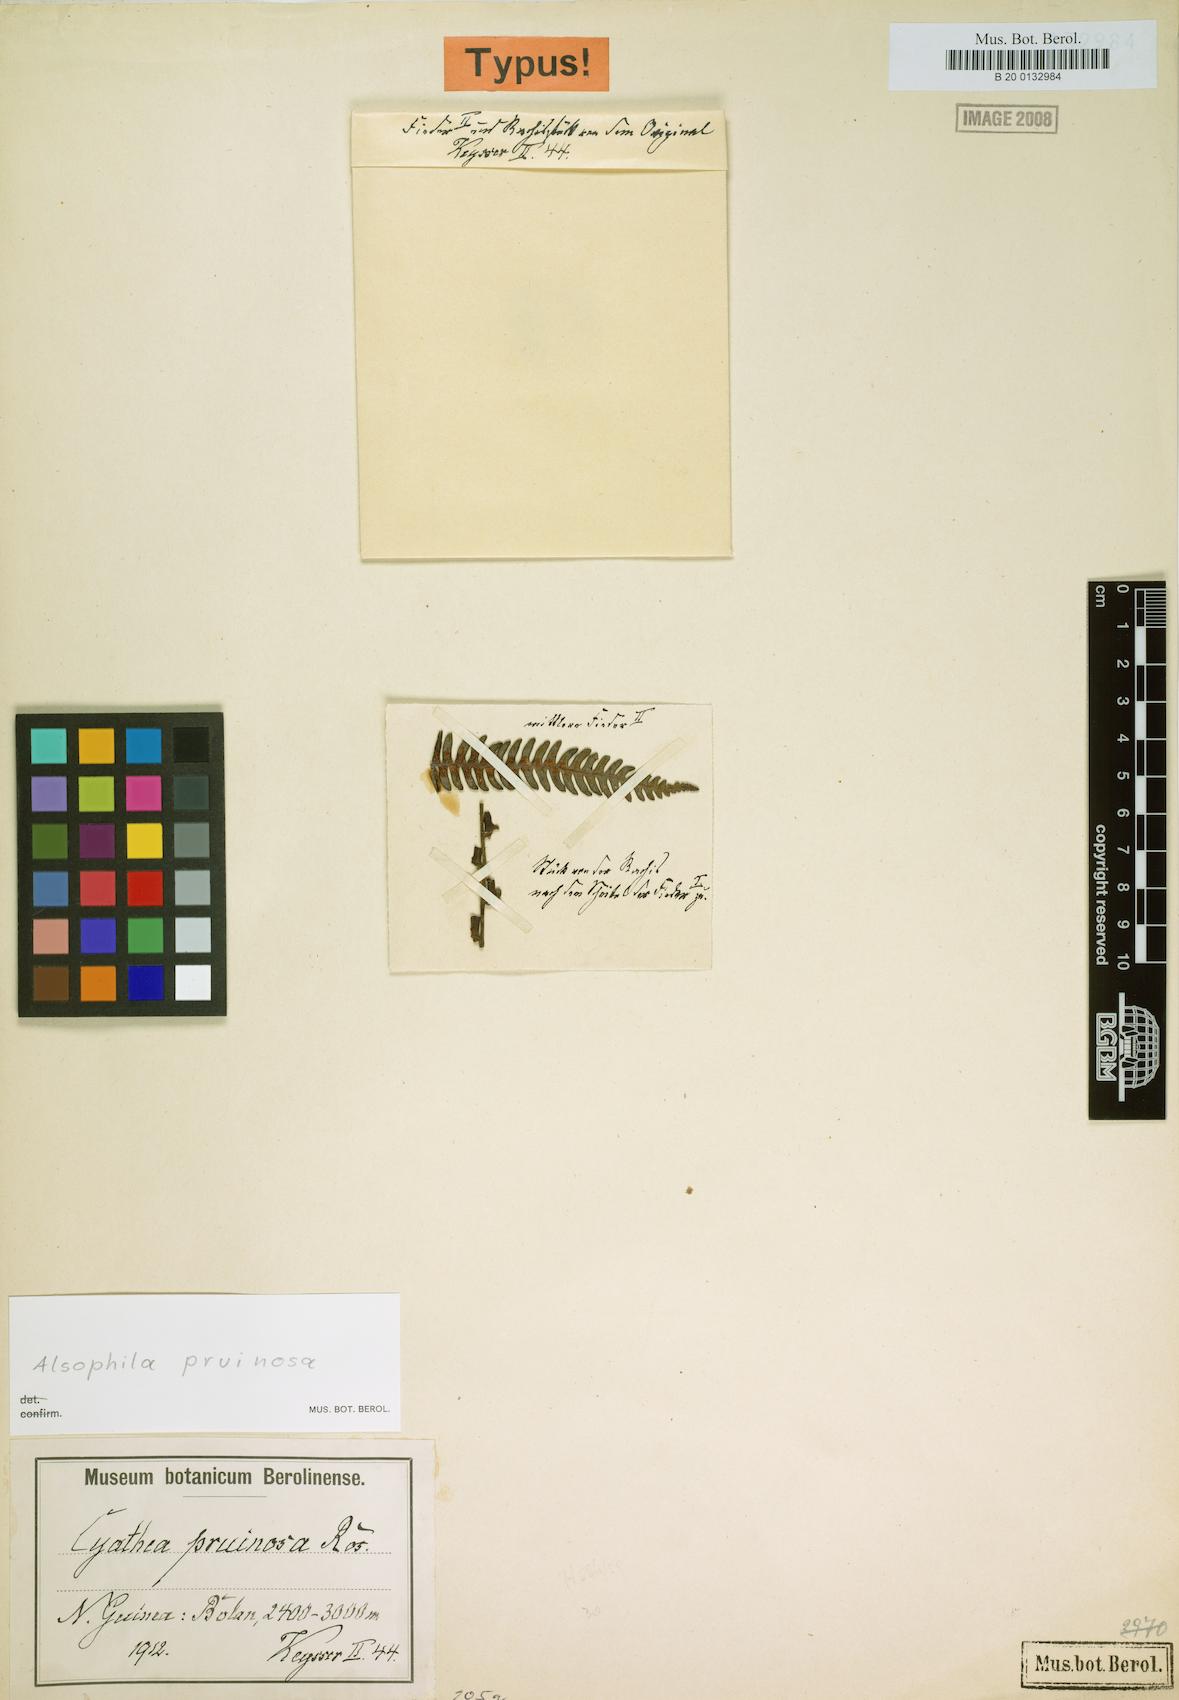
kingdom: Plantae
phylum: Tracheophyta
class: Polypodiopsida
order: Cyatheales
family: Cyatheaceae
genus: Alsophila
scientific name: Alsophila pruinosa
